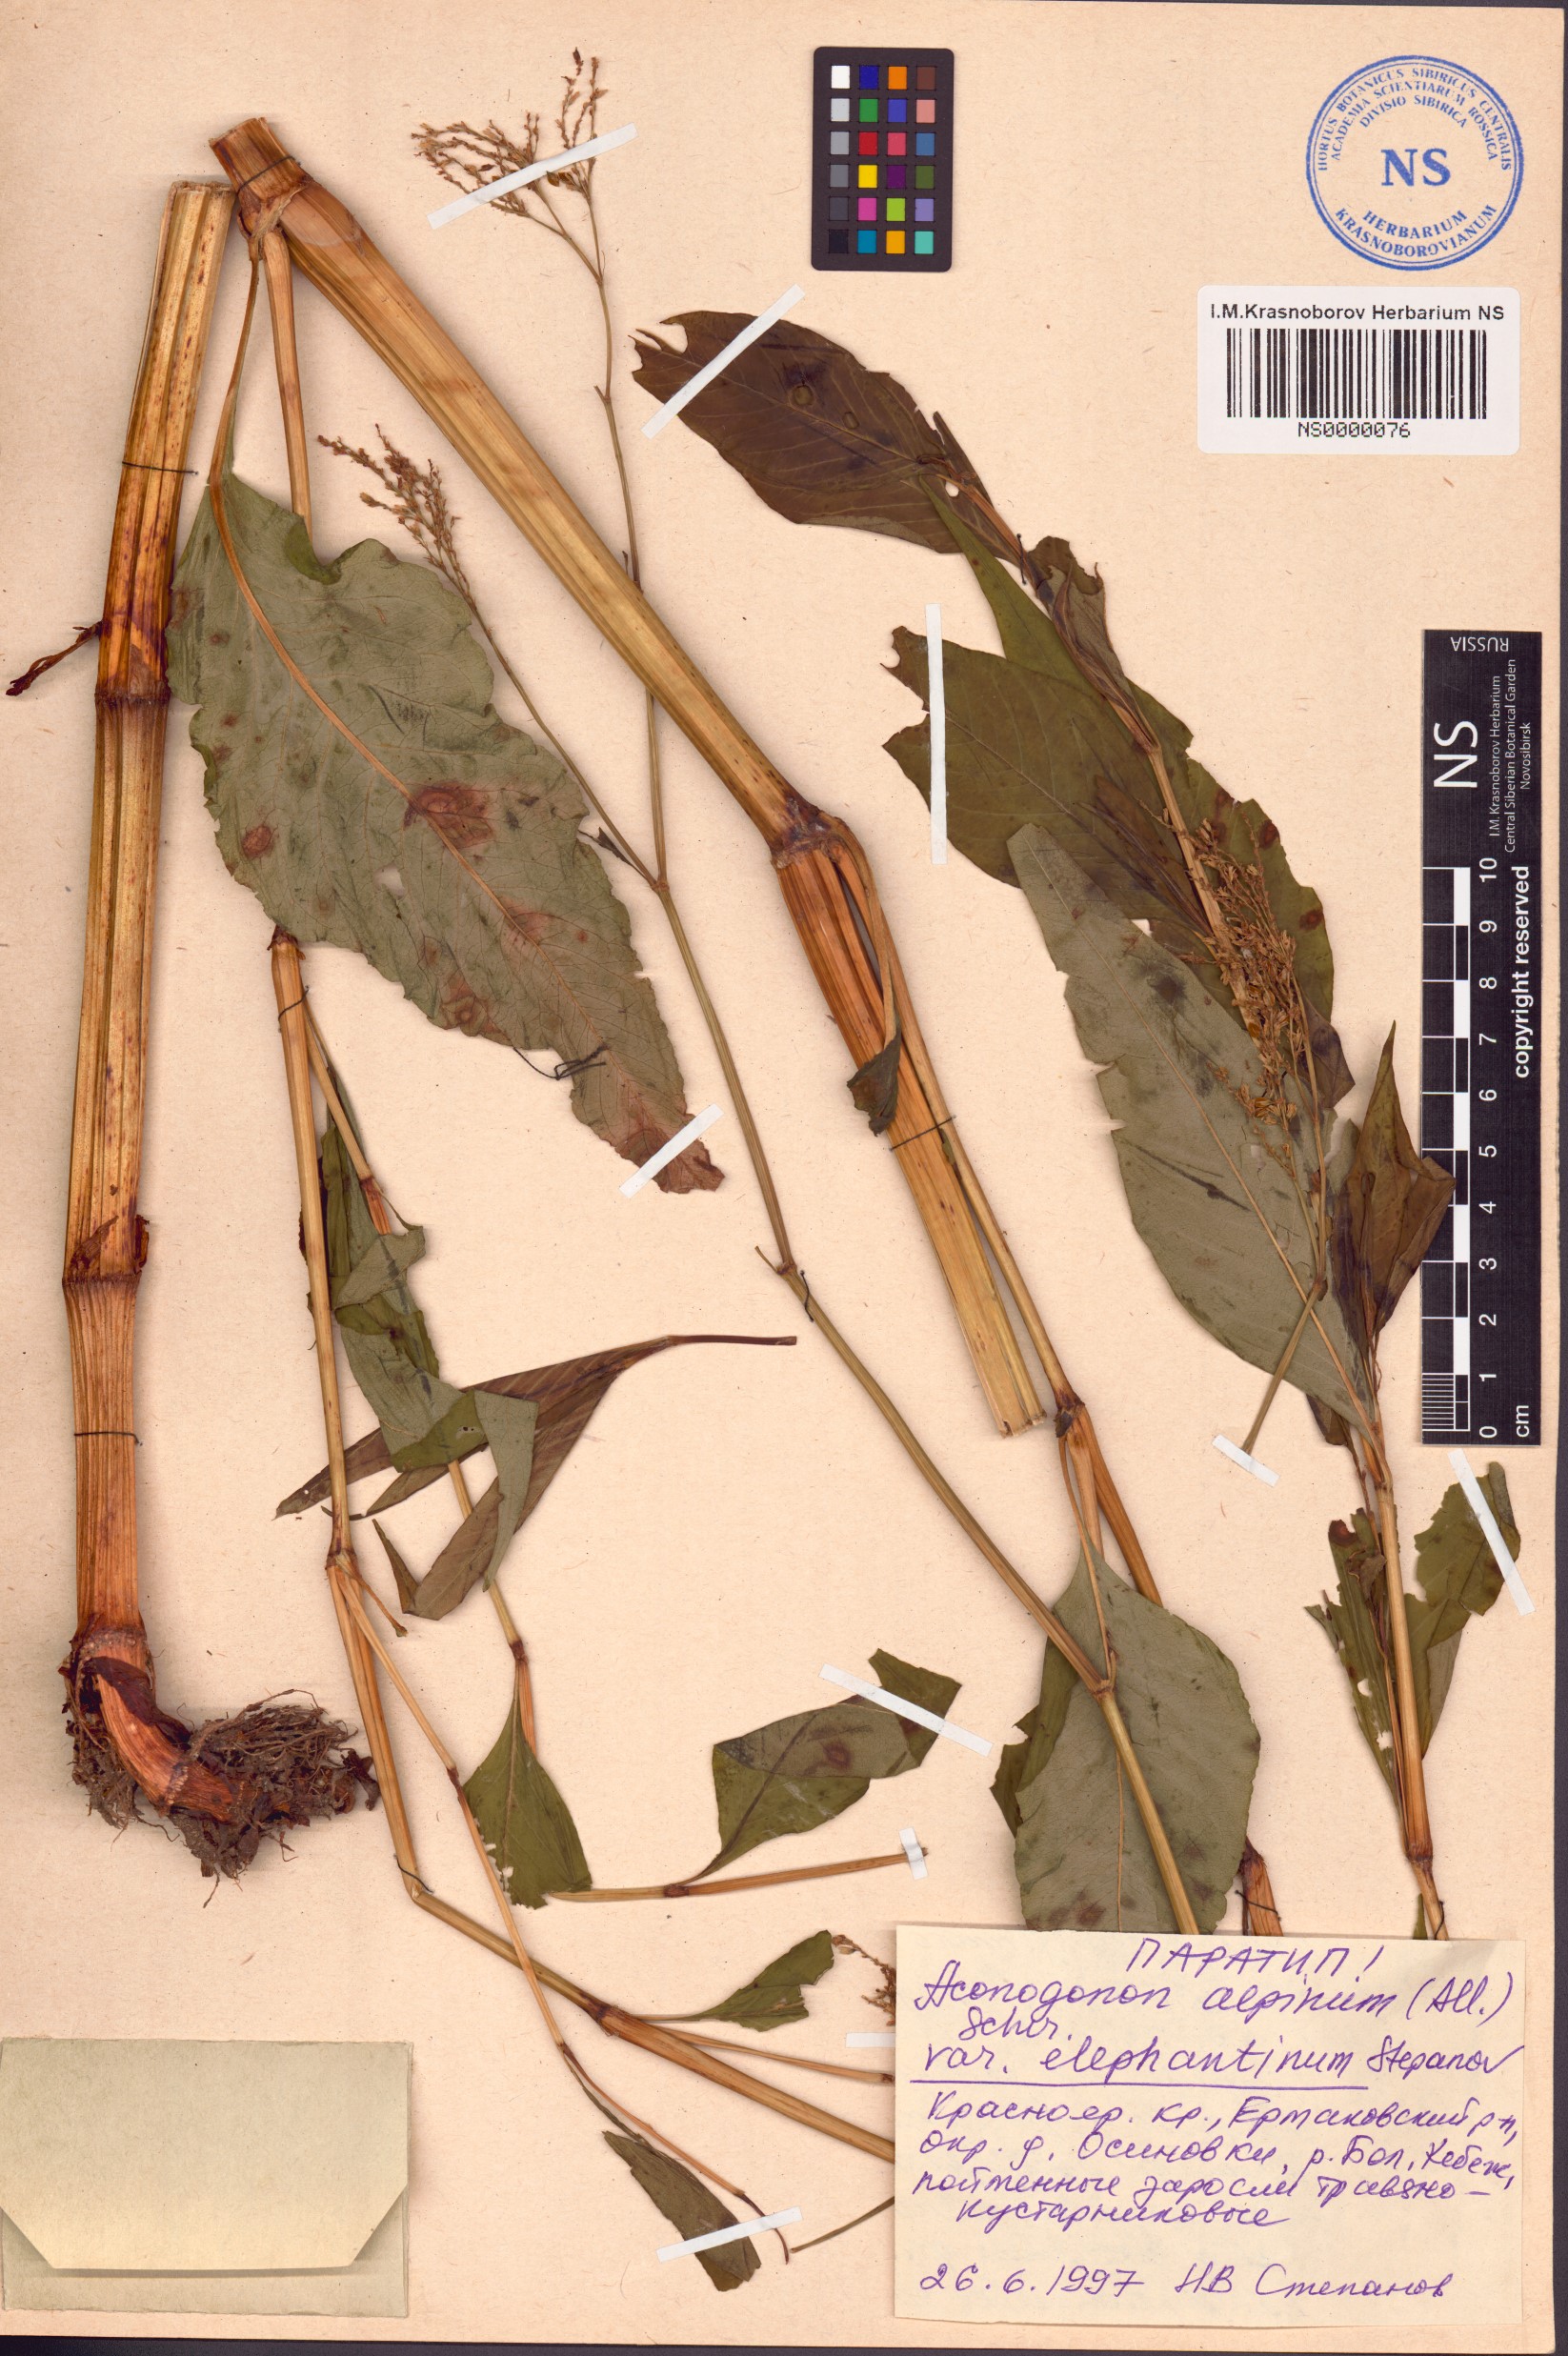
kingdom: Plantae
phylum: Tracheophyta
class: Magnoliopsida
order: Caryophyllales
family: Polygonaceae
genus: Koenigia
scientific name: Koenigia alpina
